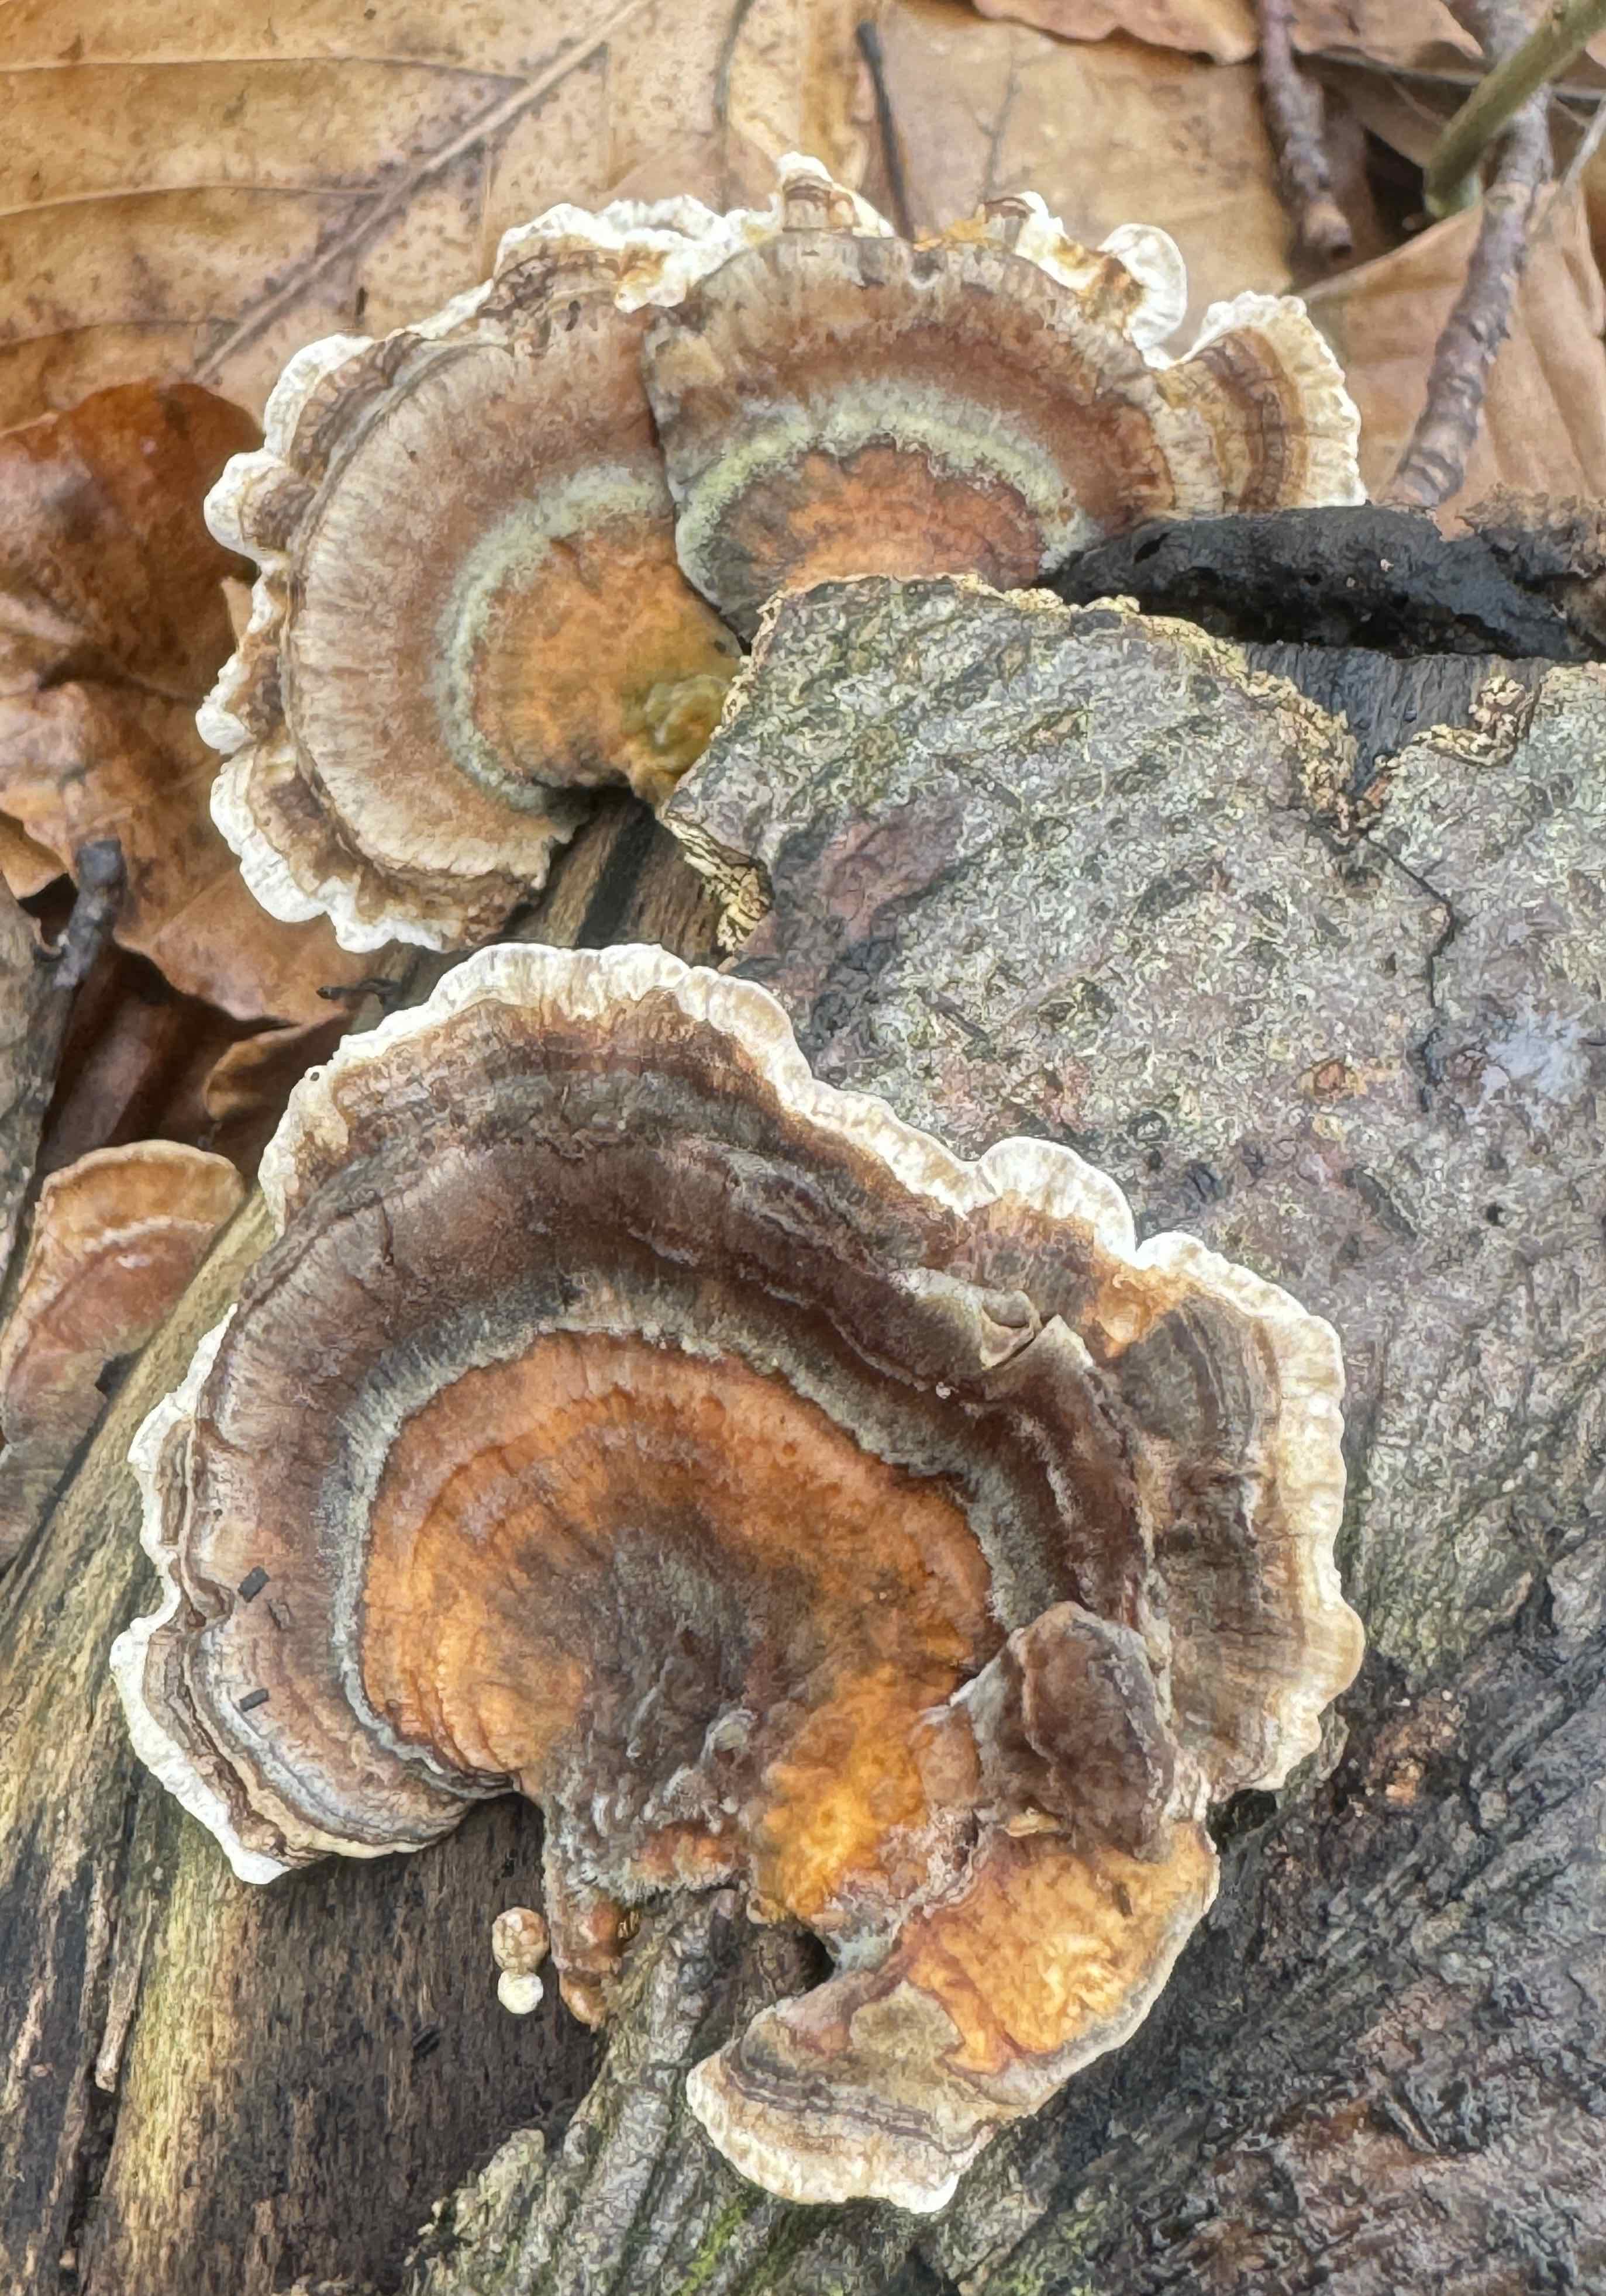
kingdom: Fungi
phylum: Basidiomycota
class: Agaricomycetes
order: Polyporales
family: Polyporaceae
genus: Trametes
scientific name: Trametes versicolor
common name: broget læderporesvamp
